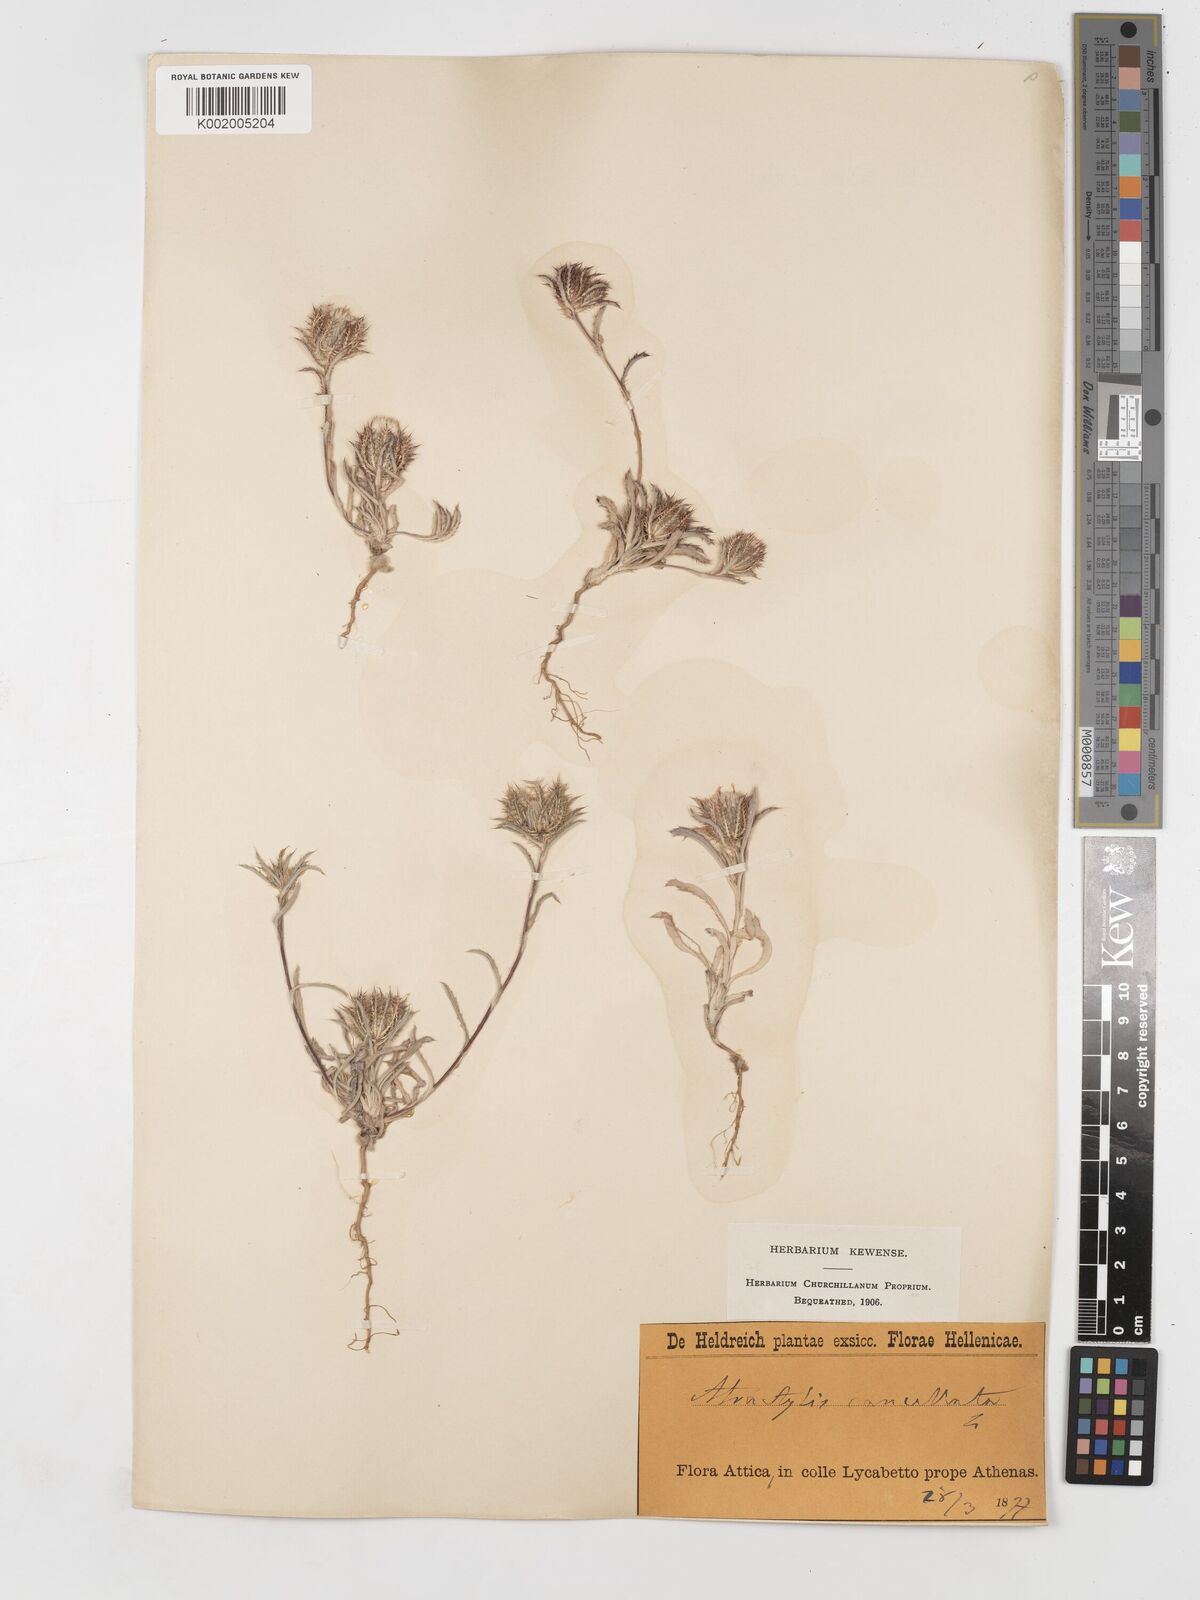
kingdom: Plantae
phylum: Tracheophyta
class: Magnoliopsida
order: Asterales
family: Asteraceae
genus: Atractylis
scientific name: Atractylis cancellata
